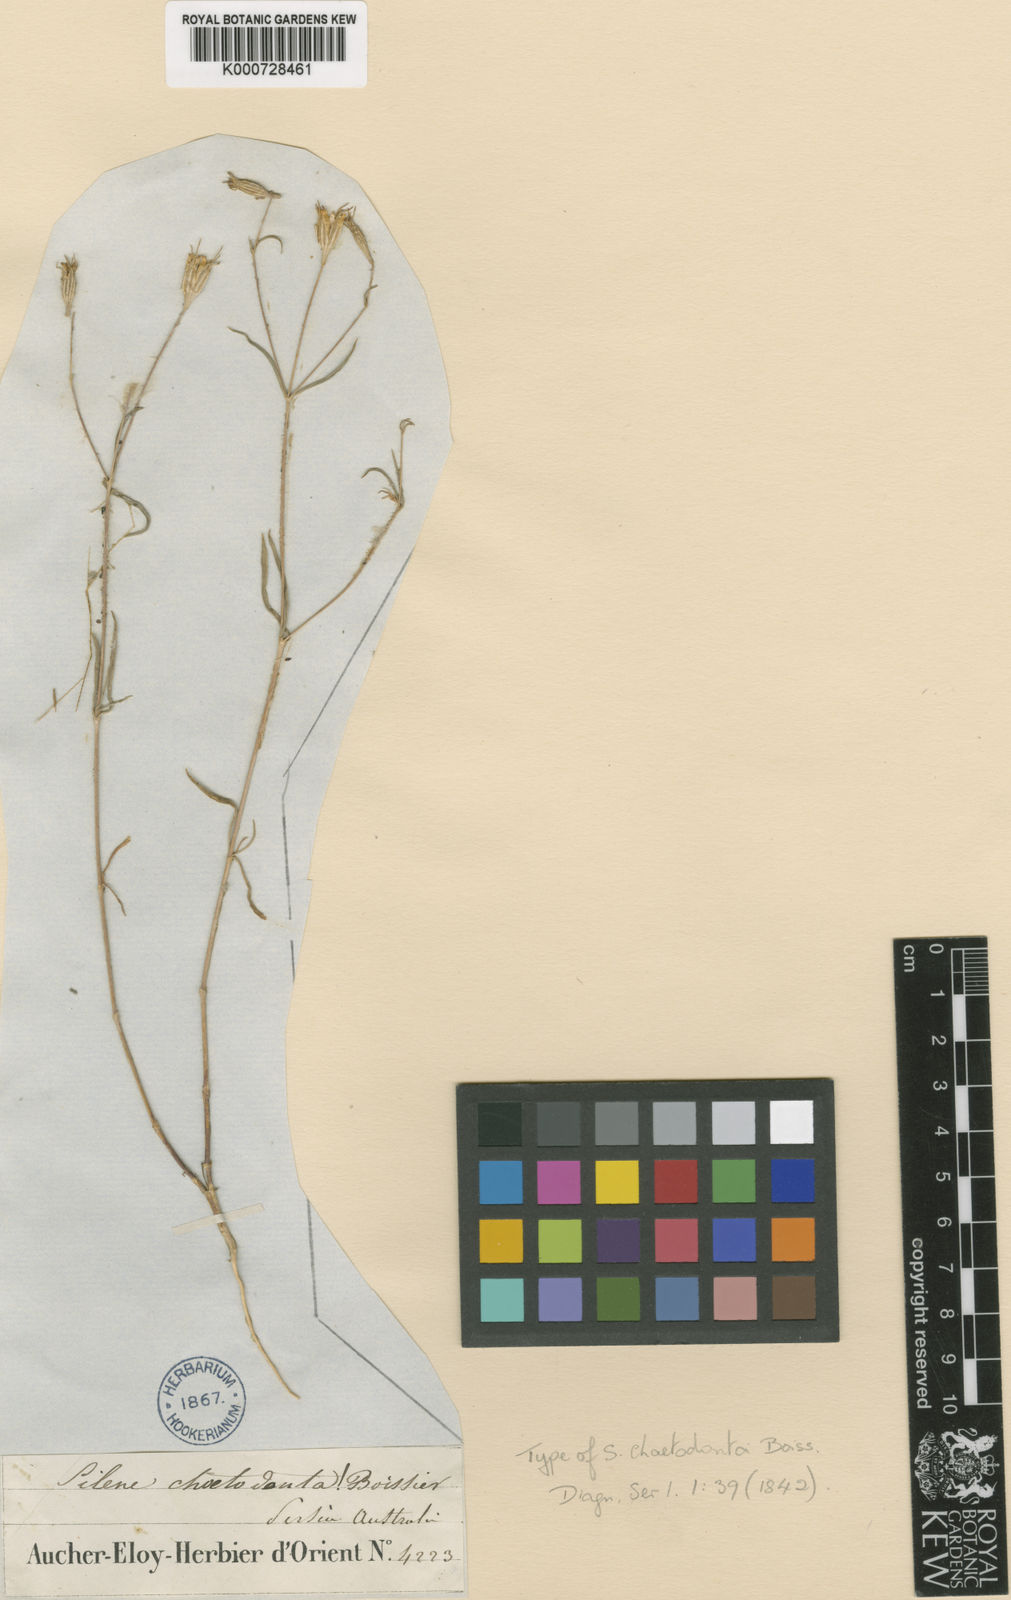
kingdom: Plantae
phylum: Tracheophyta
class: Magnoliopsida
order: Caryophyllales
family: Caryophyllaceae
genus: Silene
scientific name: Silene chaetodonta
